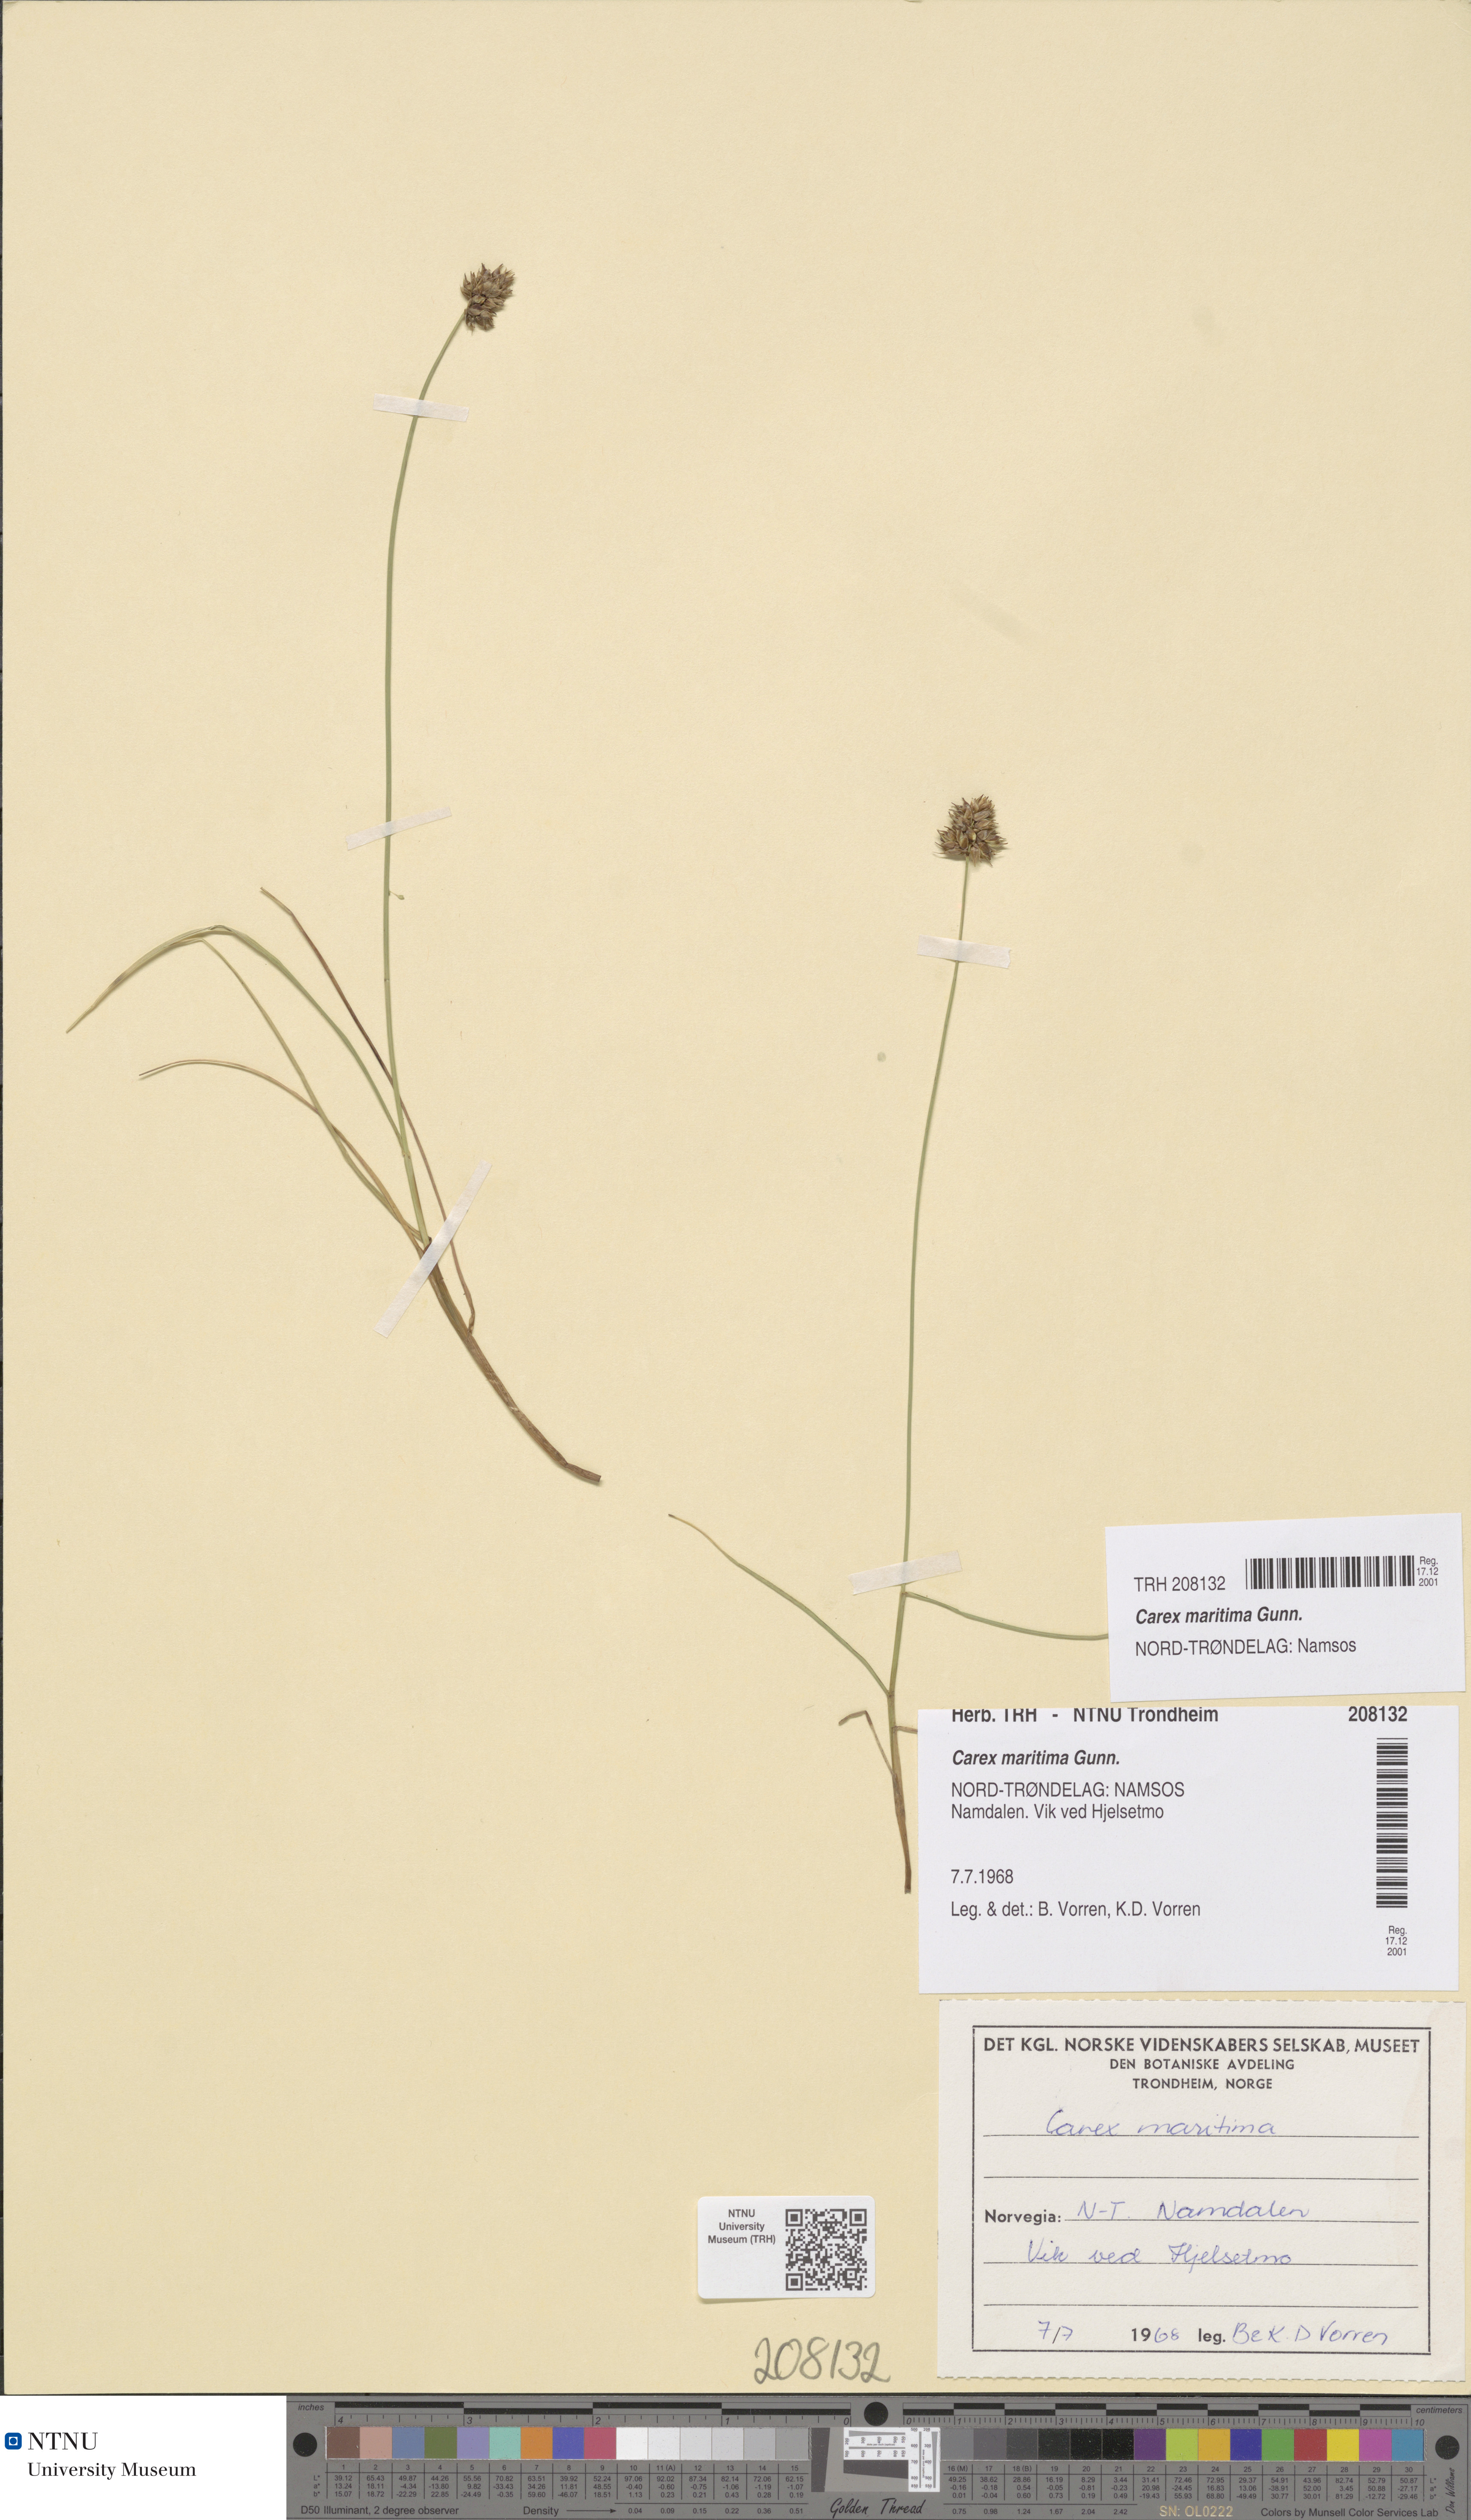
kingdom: Plantae
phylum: Tracheophyta
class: Liliopsida
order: Poales
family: Cyperaceae
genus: Carex
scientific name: Carex maritima
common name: Curved sedge
